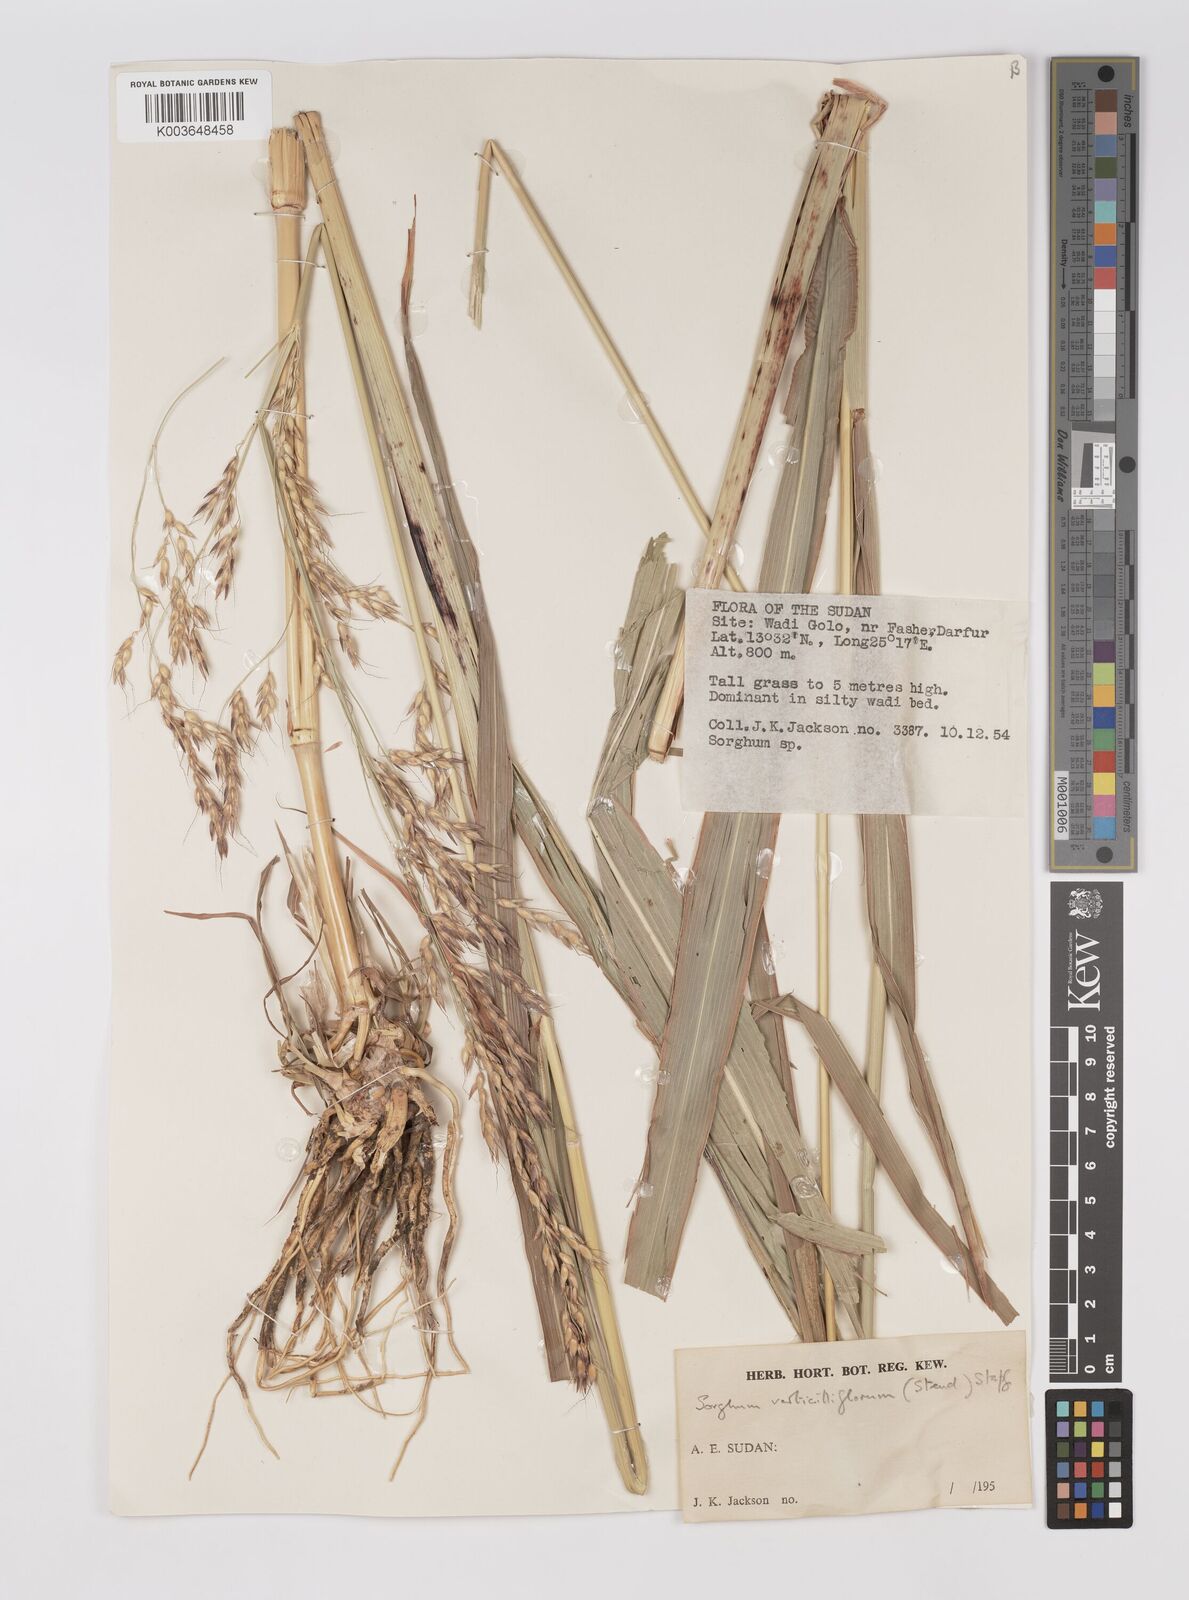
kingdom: Plantae
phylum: Tracheophyta
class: Liliopsida
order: Poales
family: Poaceae
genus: Sorghum
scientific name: Sorghum arundinaceum
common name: Sorghum
